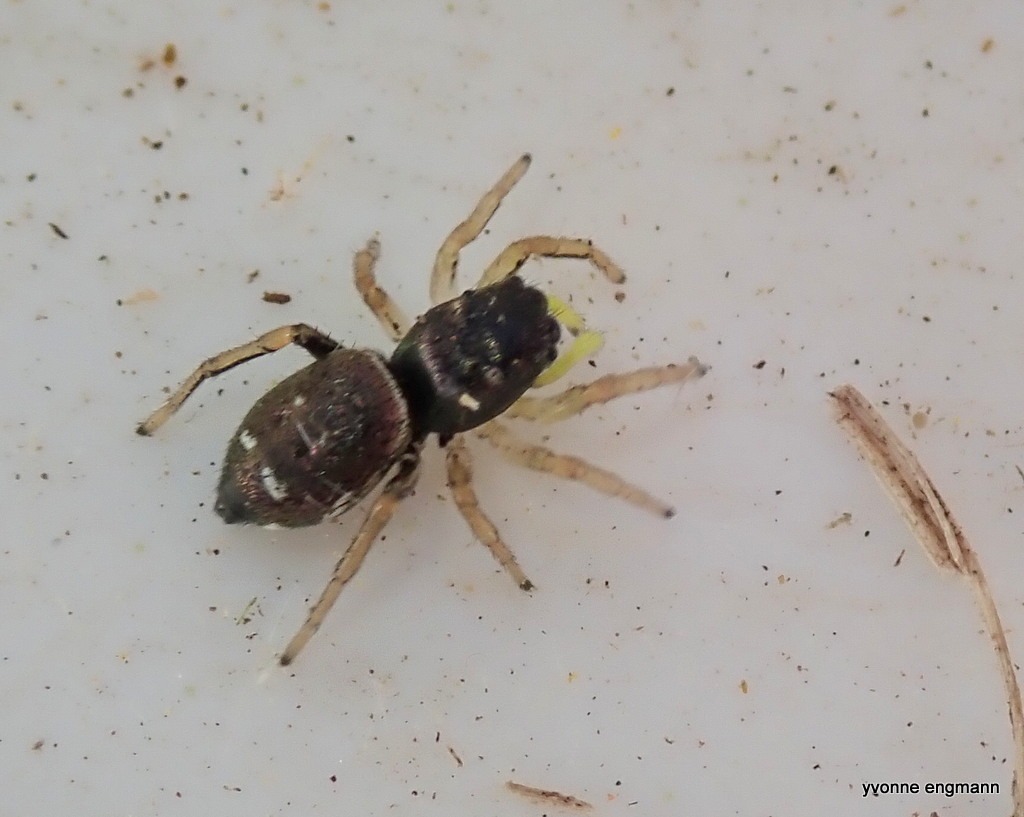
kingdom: Animalia
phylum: Arthropoda
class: Arachnida
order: Araneae
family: Salticidae
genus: Heliophanus
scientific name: Heliophanus
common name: Sortspringerslægten
